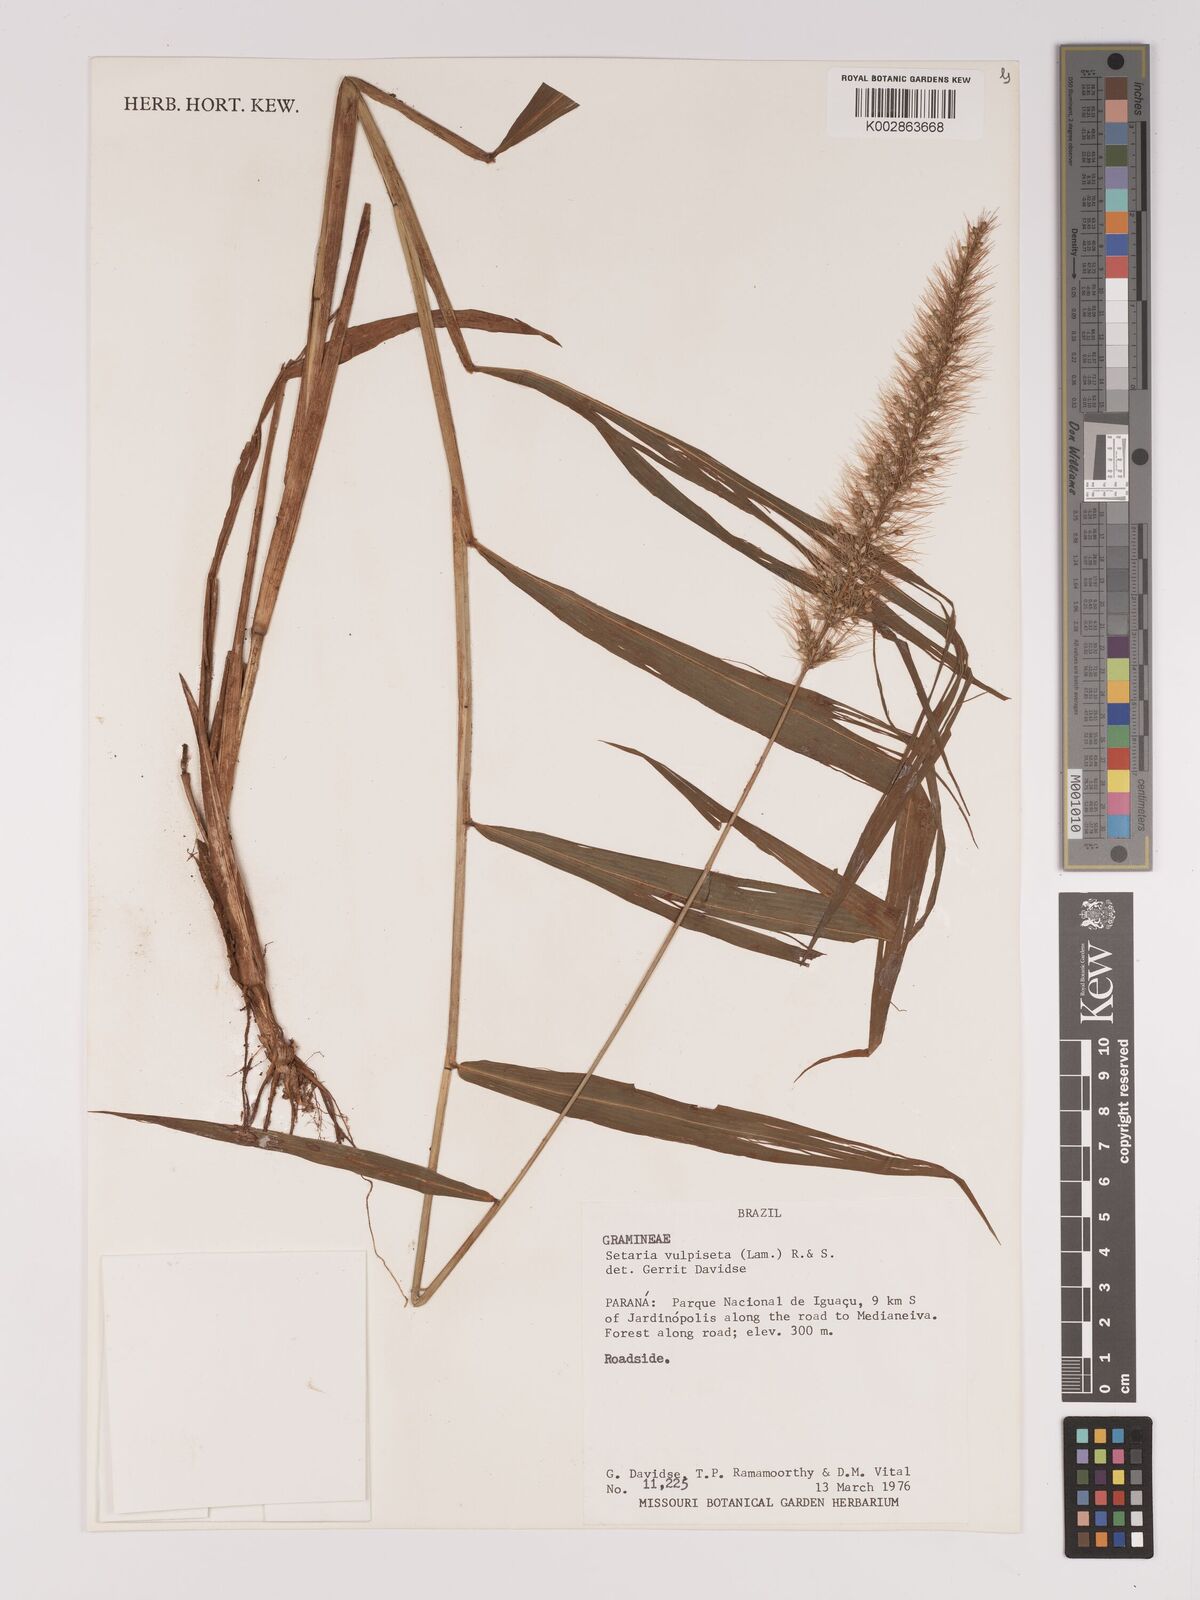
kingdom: Plantae
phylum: Tracheophyta
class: Liliopsida
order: Poales
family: Poaceae
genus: Setaria
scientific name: Setaria vulpiseta
